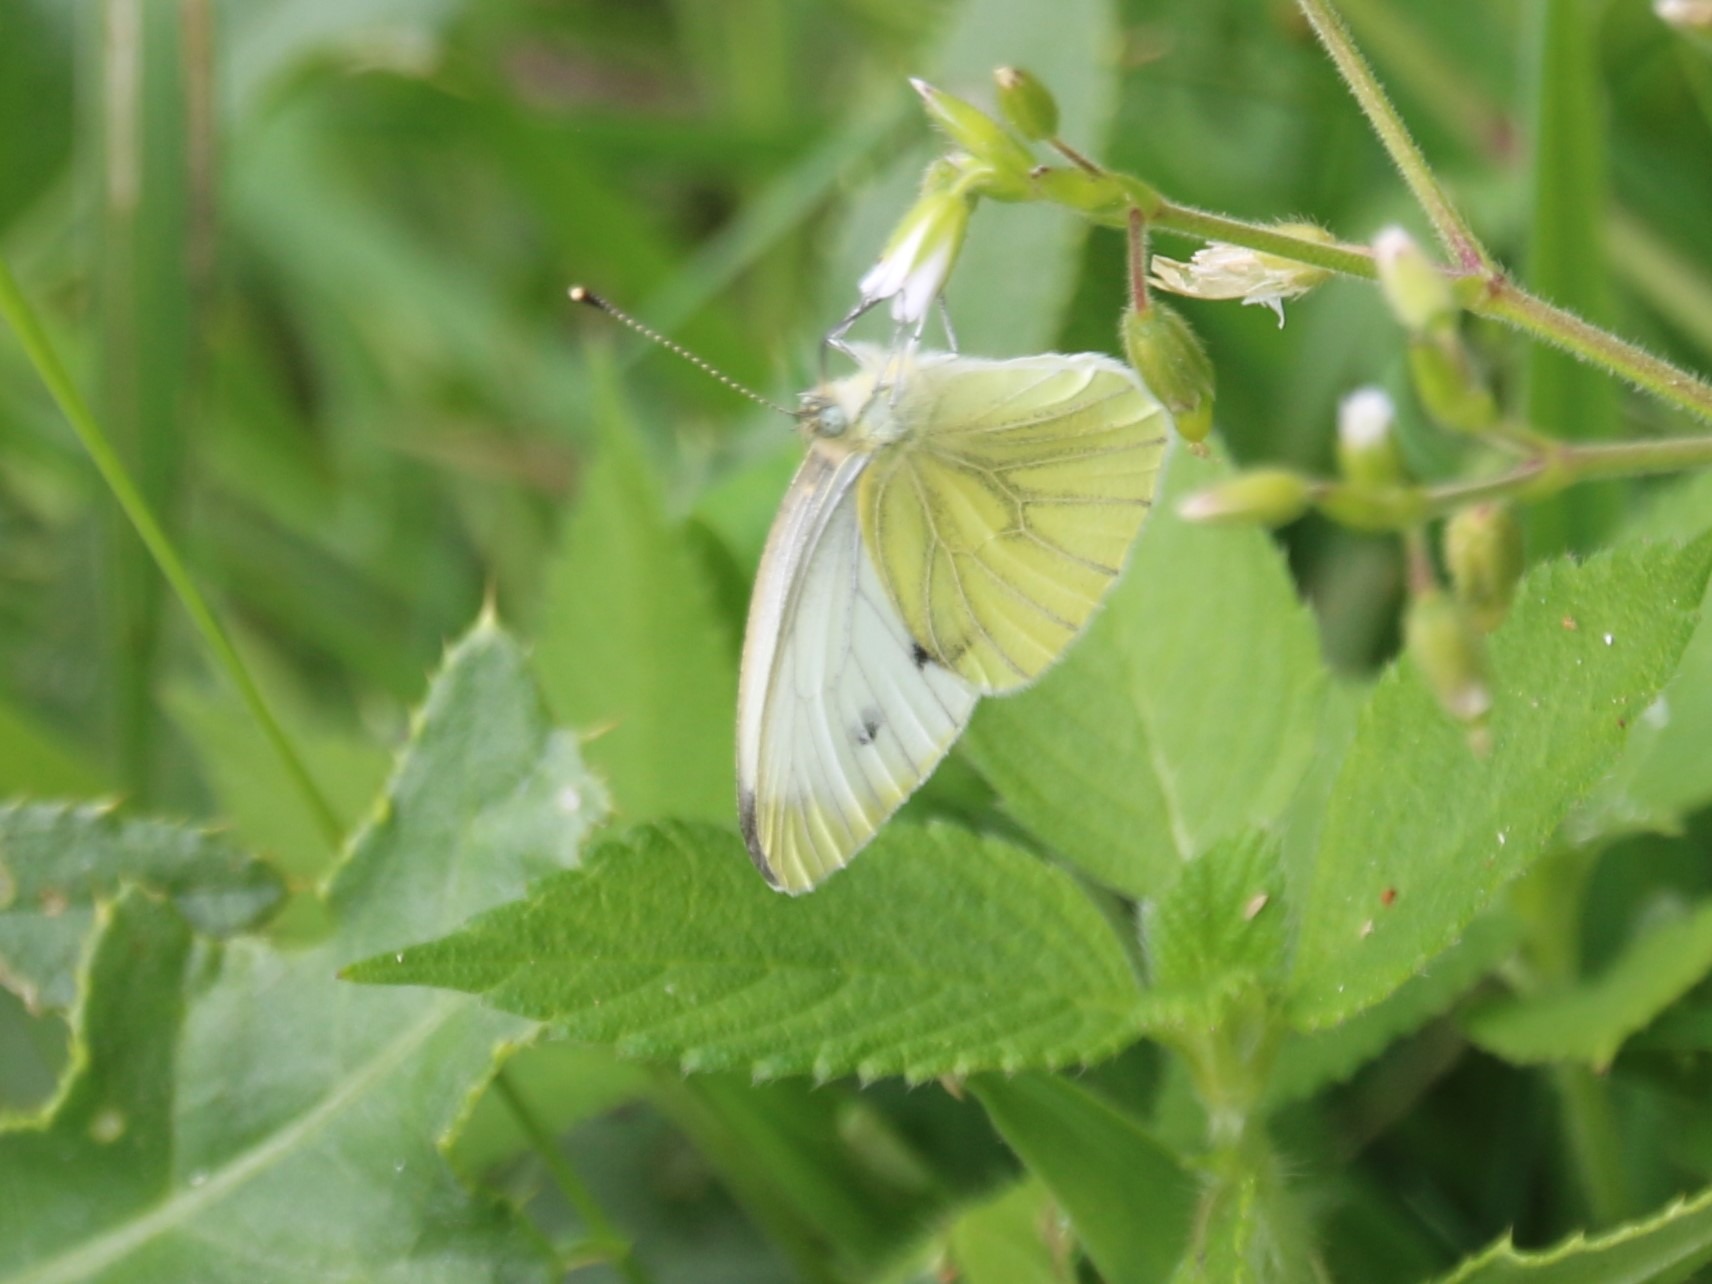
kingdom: Animalia
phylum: Arthropoda
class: Insecta
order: Lepidoptera
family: Pieridae
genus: Pieris
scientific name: Pieris napi
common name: Grønåret kålsommerfugl
